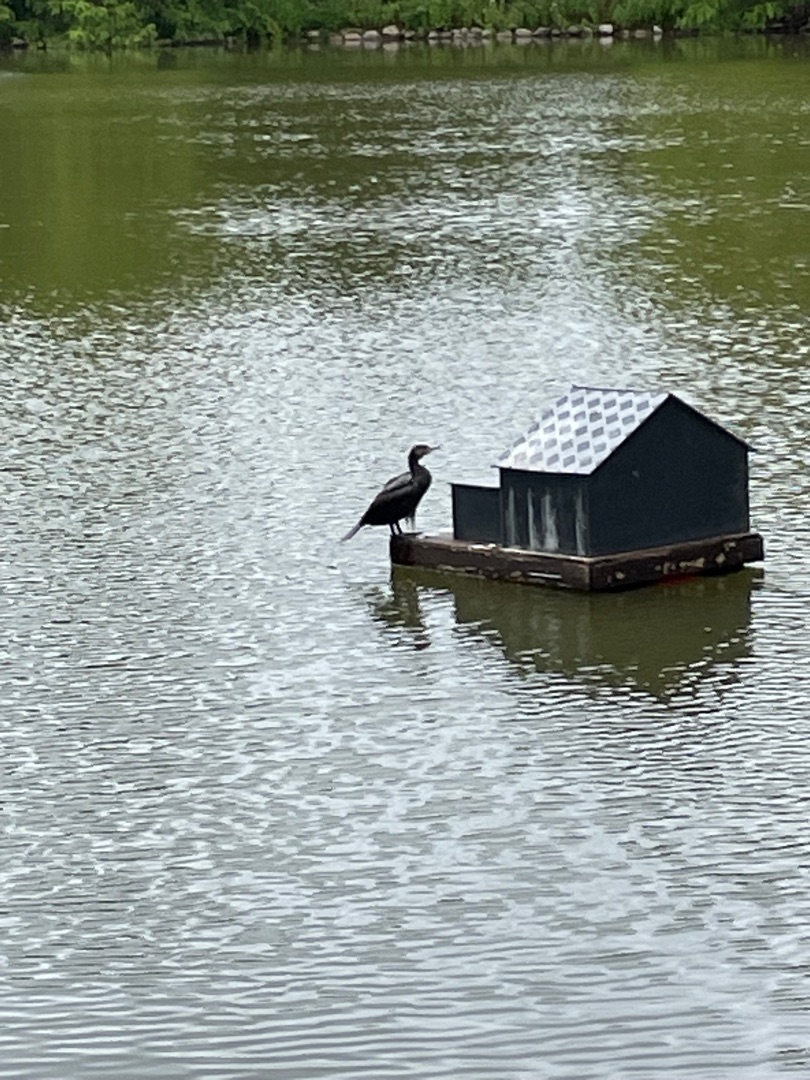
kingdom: Animalia
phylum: Chordata
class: Aves
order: Suliformes
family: Phalacrocoracidae
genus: Phalacrocorax
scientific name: Phalacrocorax carbo
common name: Skarv
